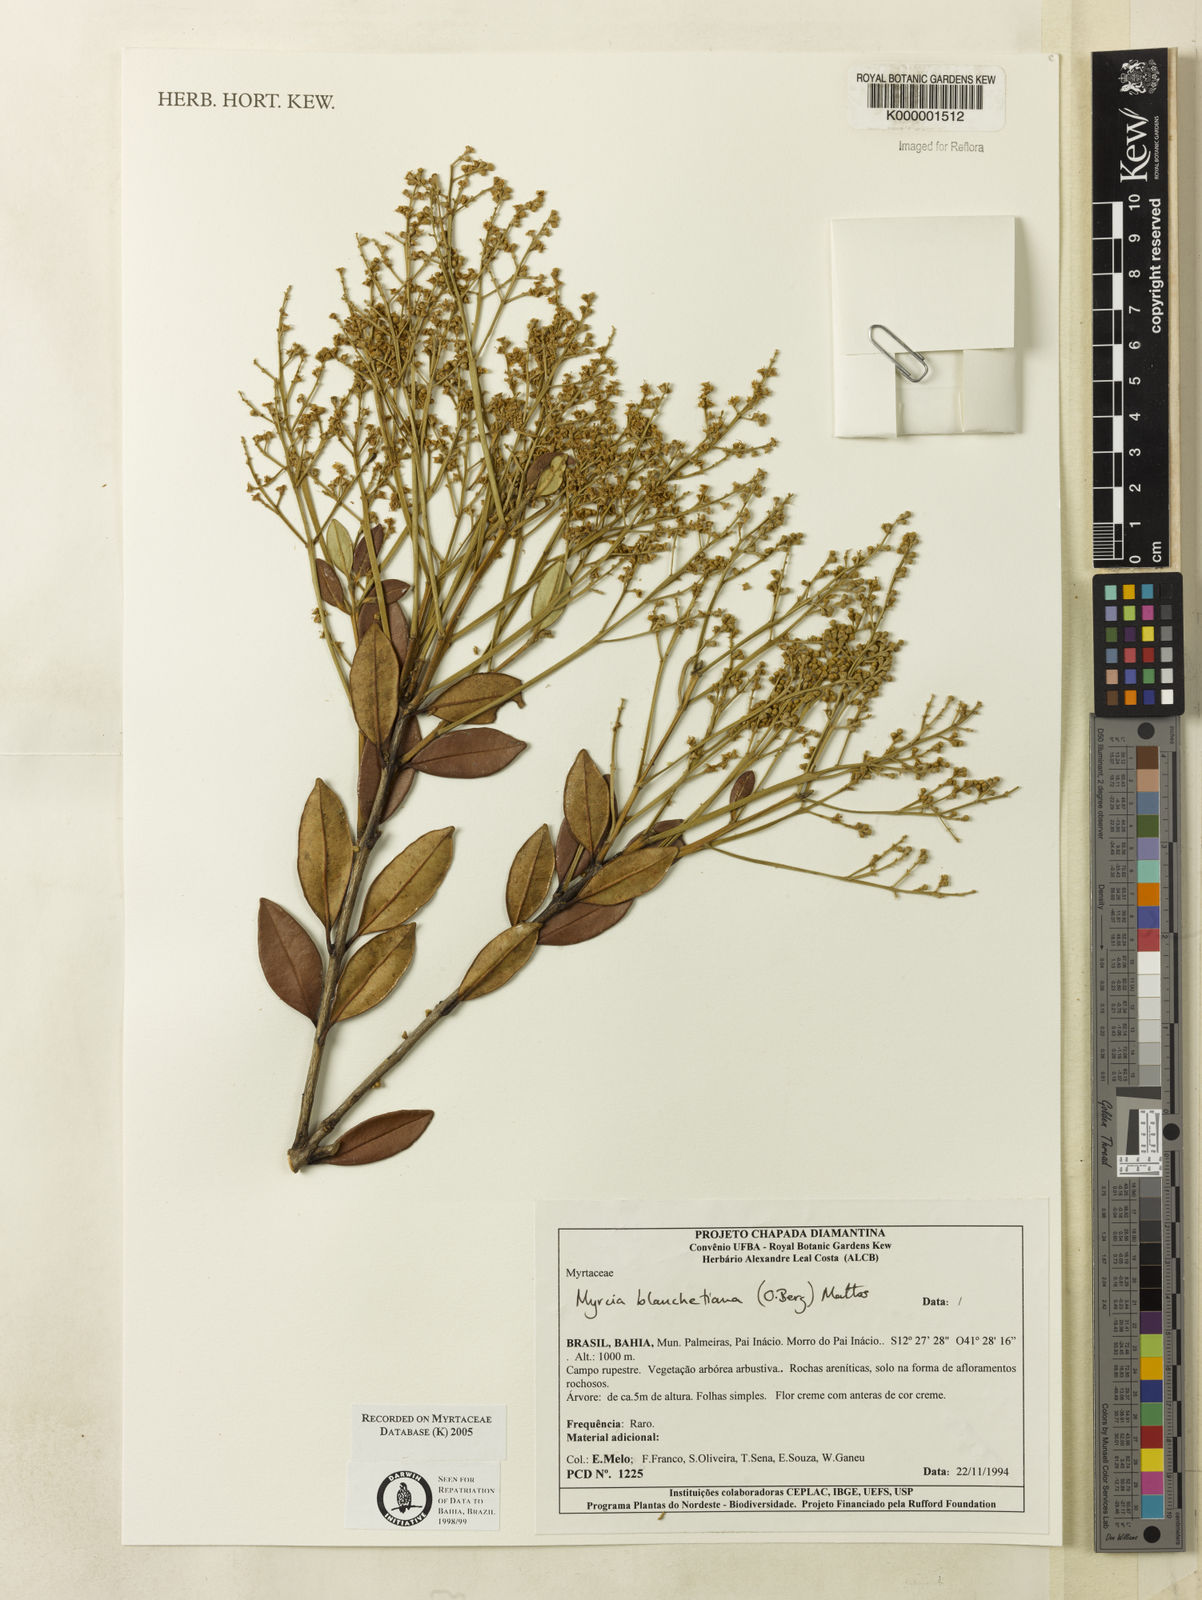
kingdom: Plantae
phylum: Tracheophyta
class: Magnoliopsida
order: Myrtales
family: Myrtaceae
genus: Myrcia
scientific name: Myrcia blanchetiana
